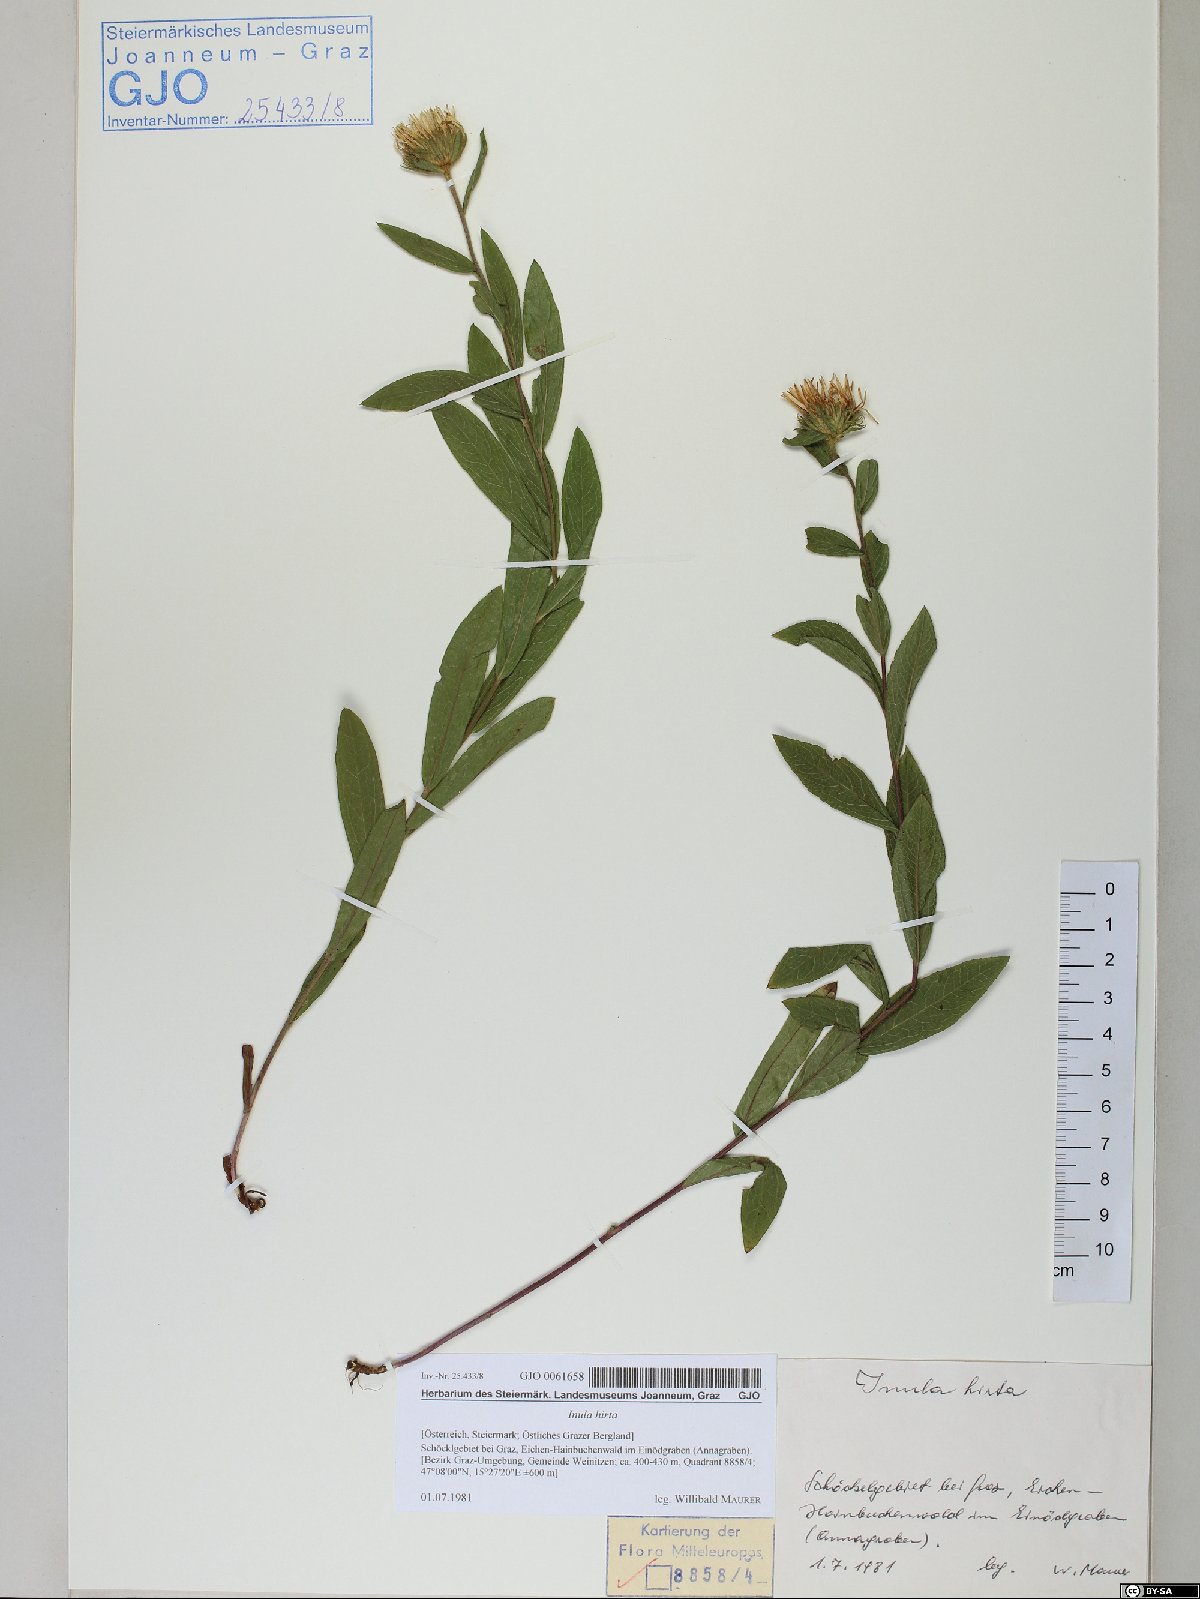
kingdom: Plantae
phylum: Tracheophyta
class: Magnoliopsida
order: Asterales
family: Asteraceae
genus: Pentanema
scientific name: Pentanema hirtum
